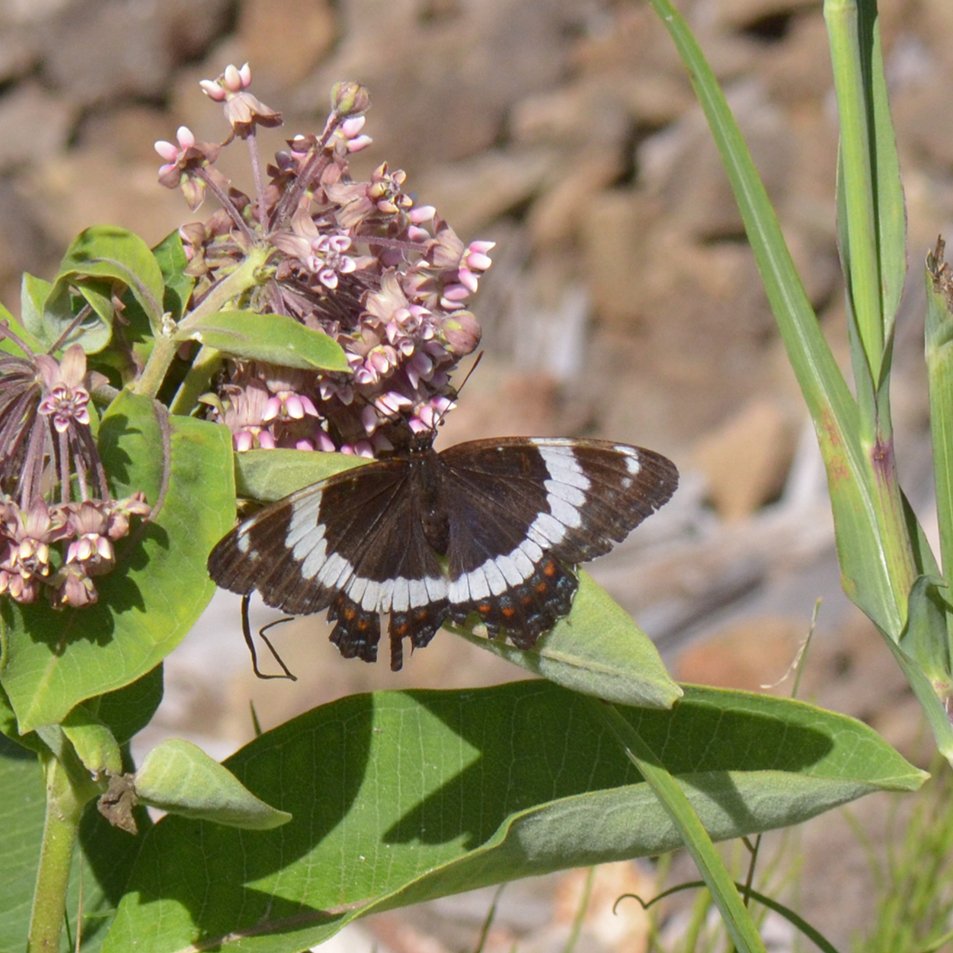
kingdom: Animalia
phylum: Arthropoda
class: Insecta
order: Lepidoptera
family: Nymphalidae
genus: Limenitis
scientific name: Limenitis arthemis
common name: Red-spotted Admiral
